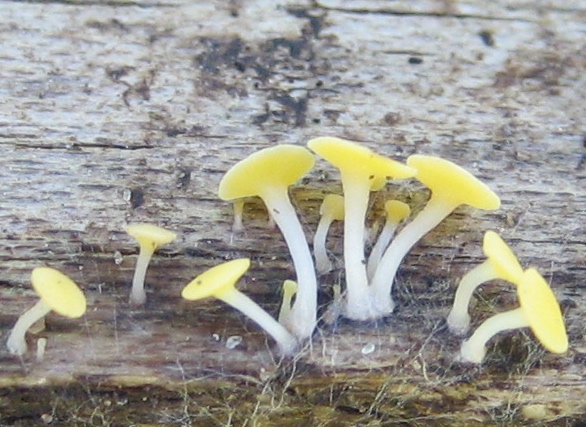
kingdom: Fungi
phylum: Ascomycota
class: Leotiomycetes
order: Helotiales
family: Helotiaceae
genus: Hymenoscyphus
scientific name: Hymenoscyphus
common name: stilkskive
